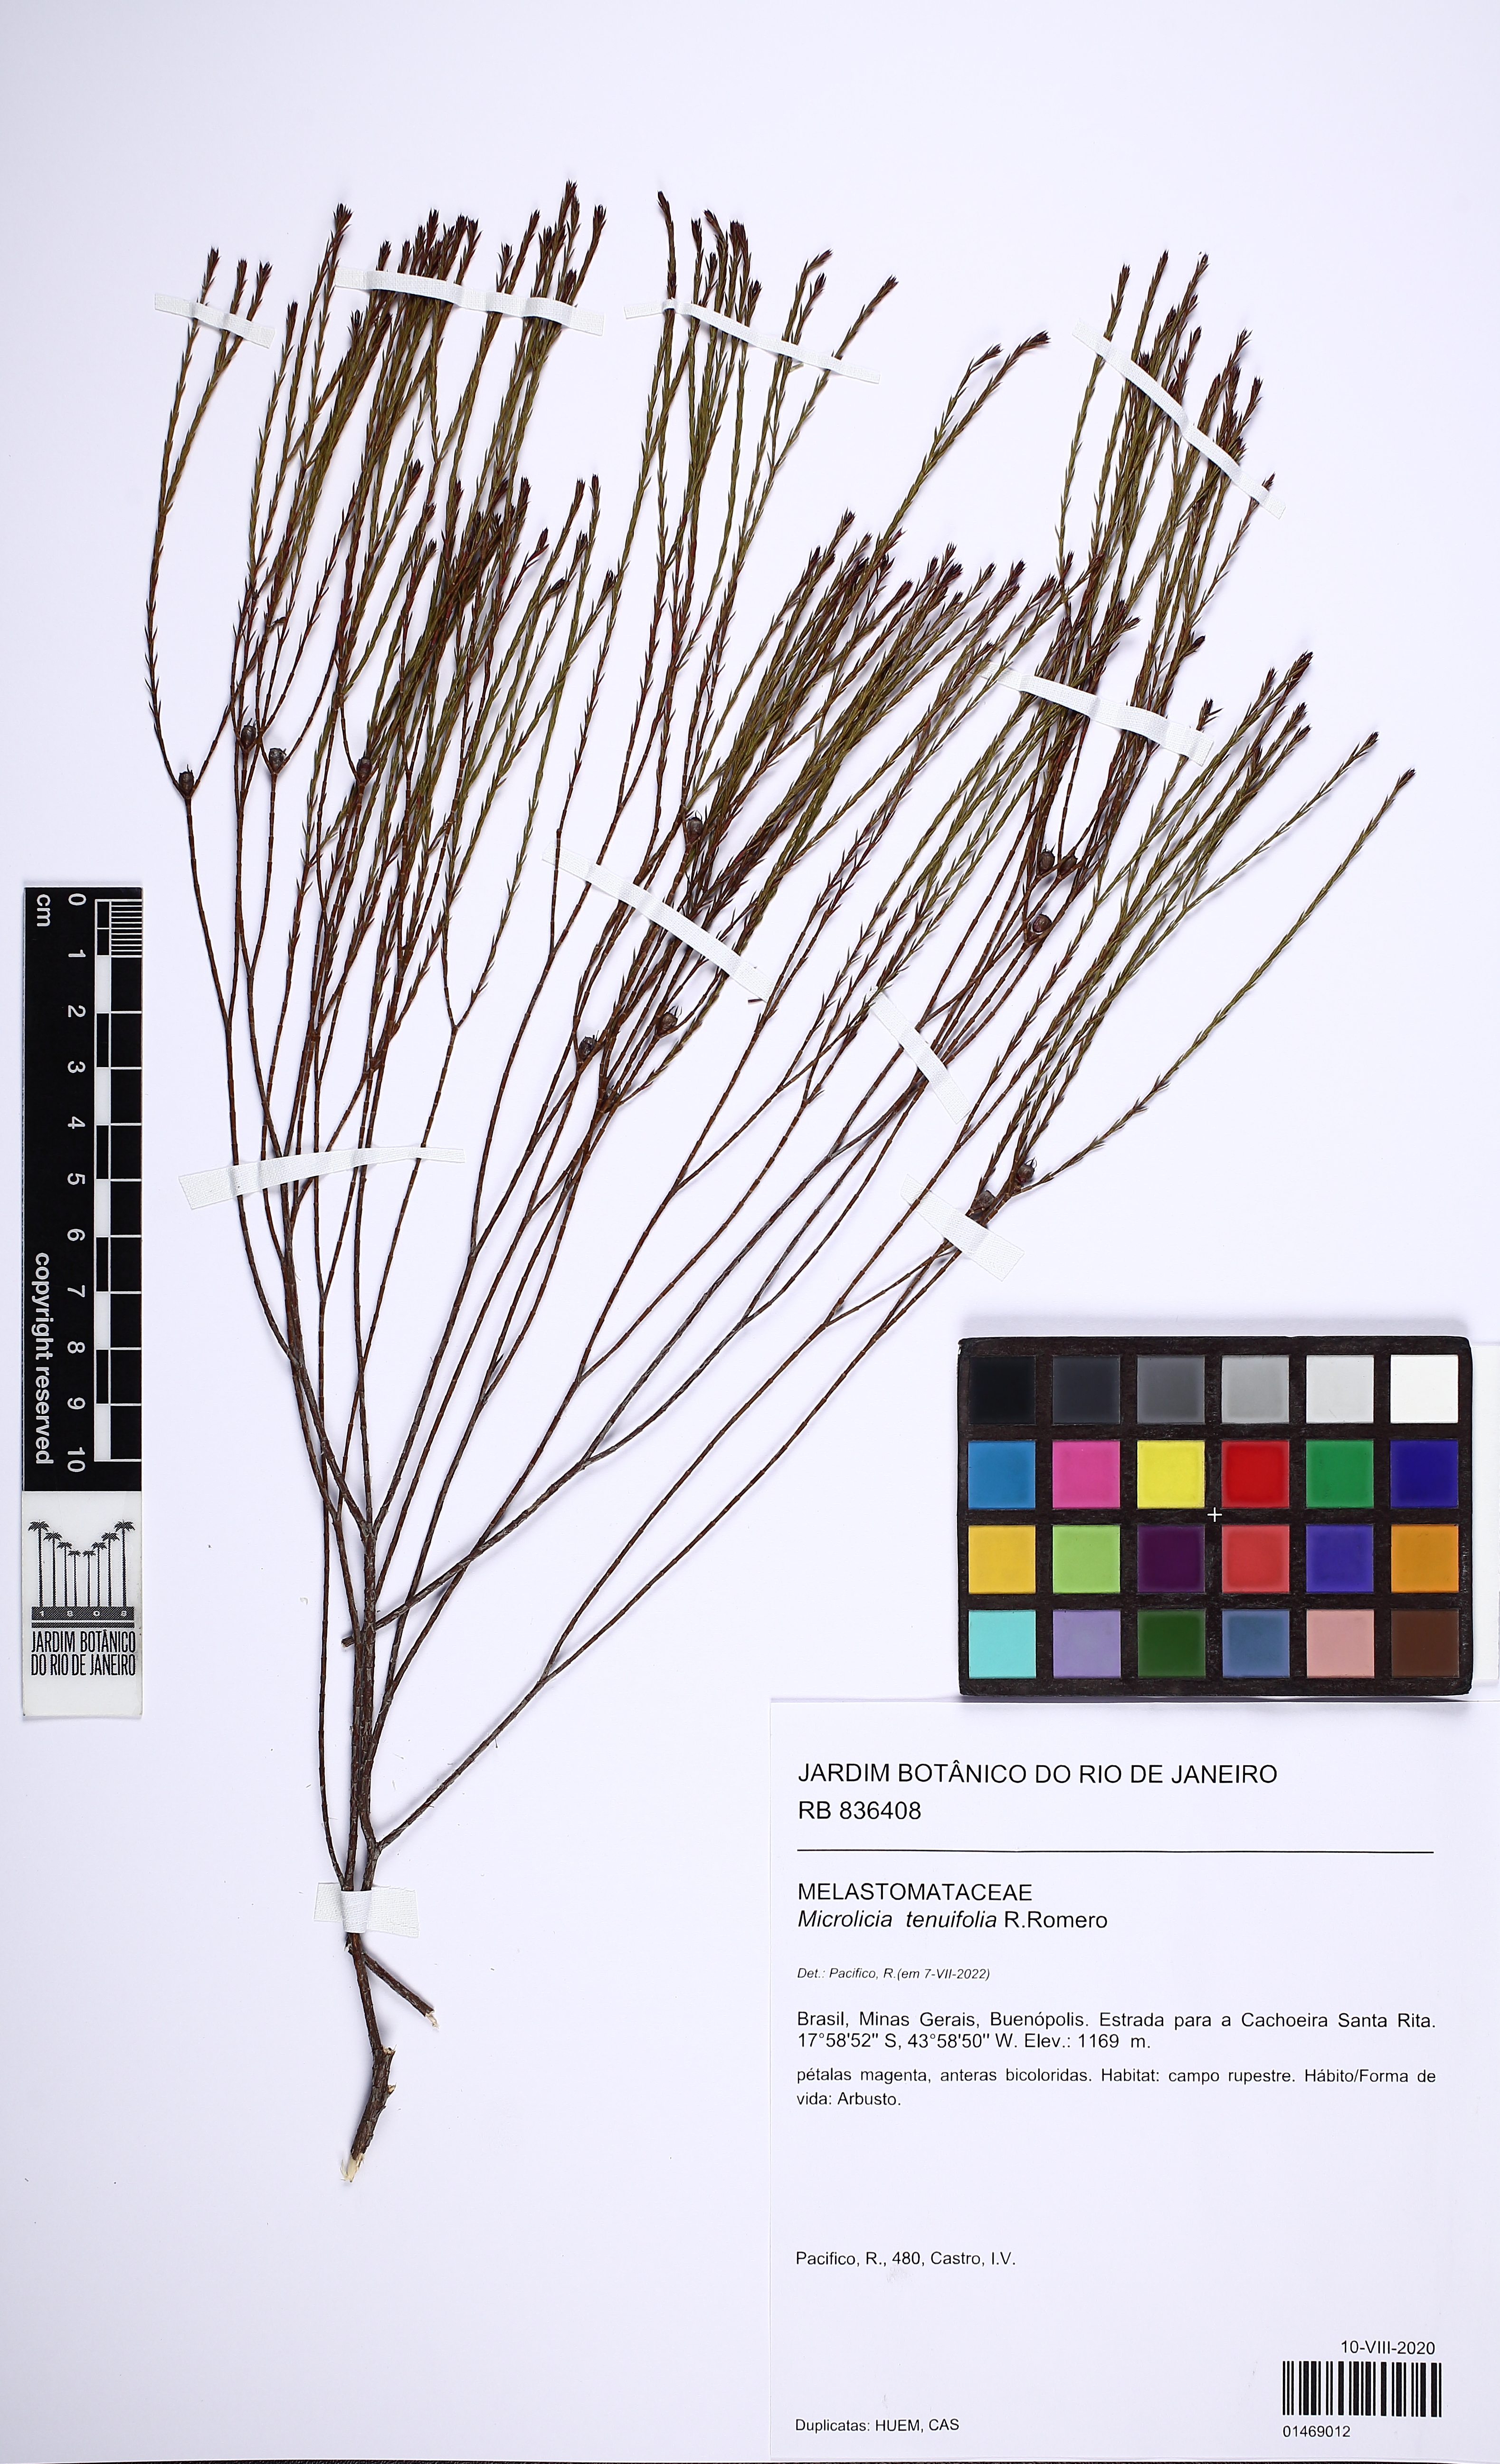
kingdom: Plantae
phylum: Tracheophyta
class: Magnoliopsida
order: Myrtales
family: Melastomataceae
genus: Microlicia
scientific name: Microlicia tenuifolia
